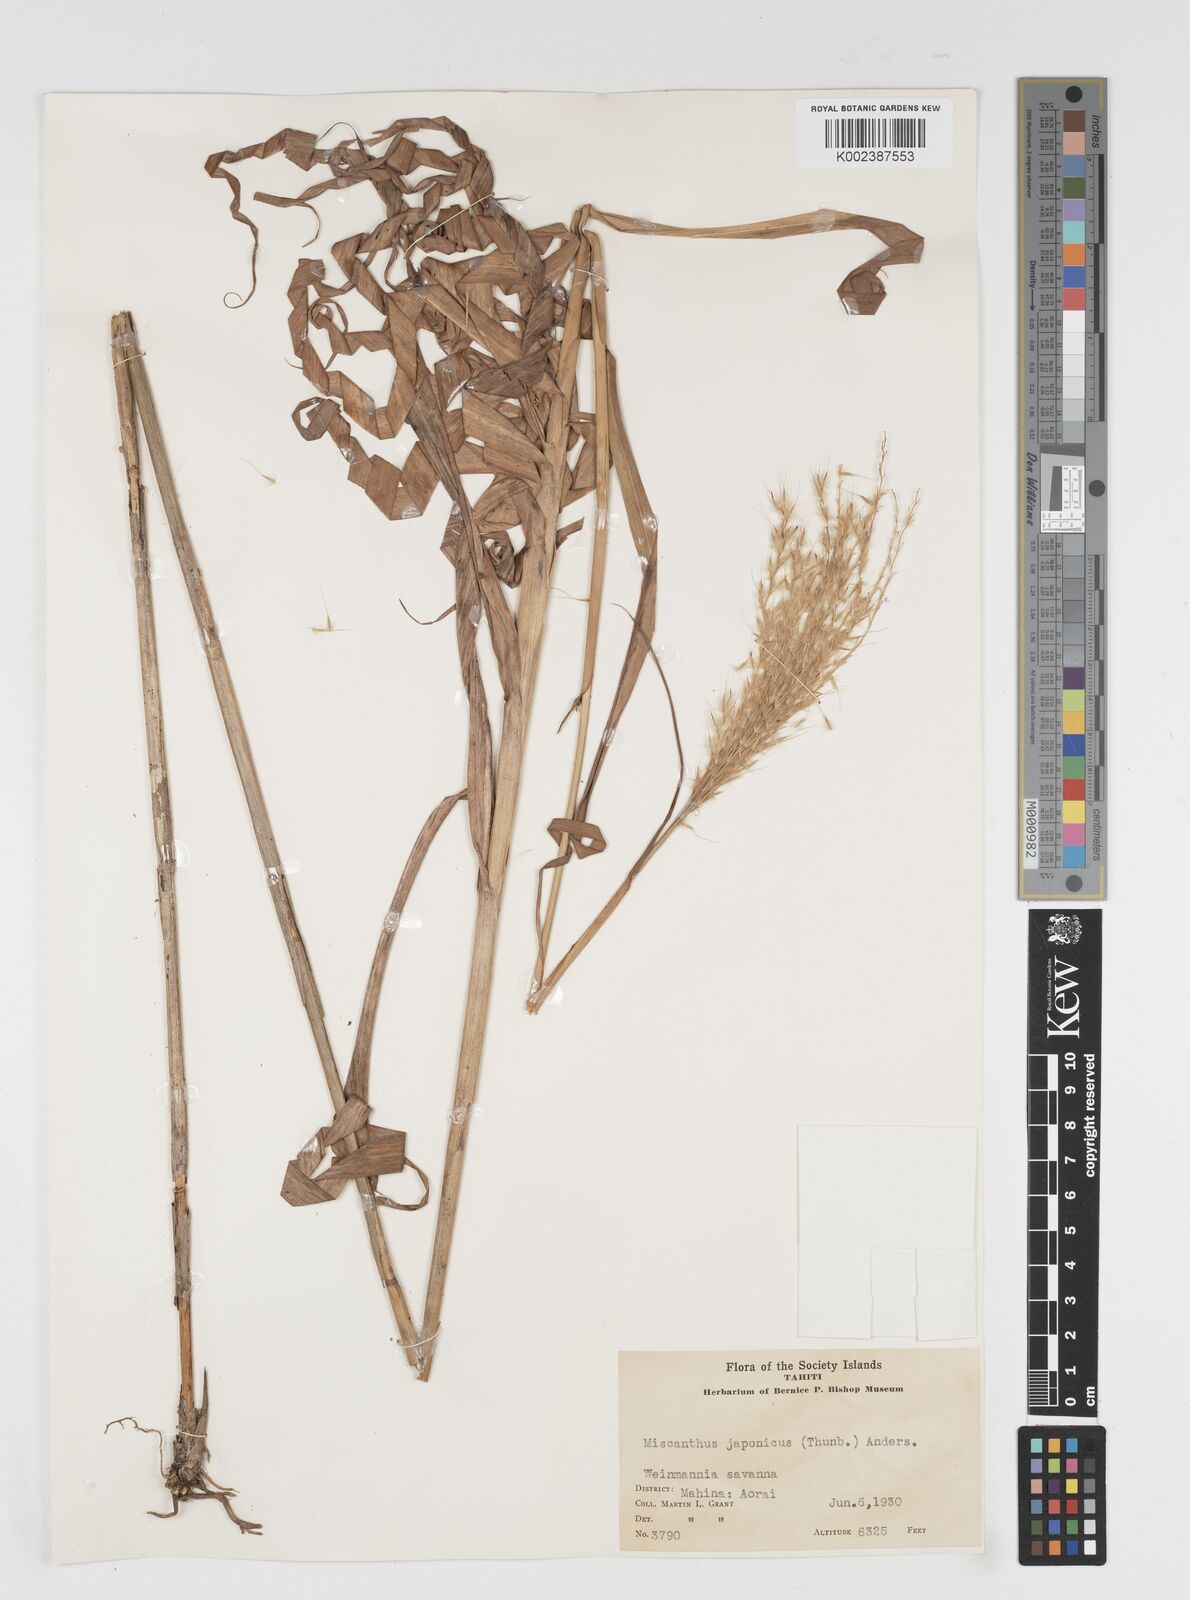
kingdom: Plantae
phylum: Tracheophyta
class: Liliopsida
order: Poales
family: Poaceae
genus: Miscanthus
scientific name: Miscanthus
